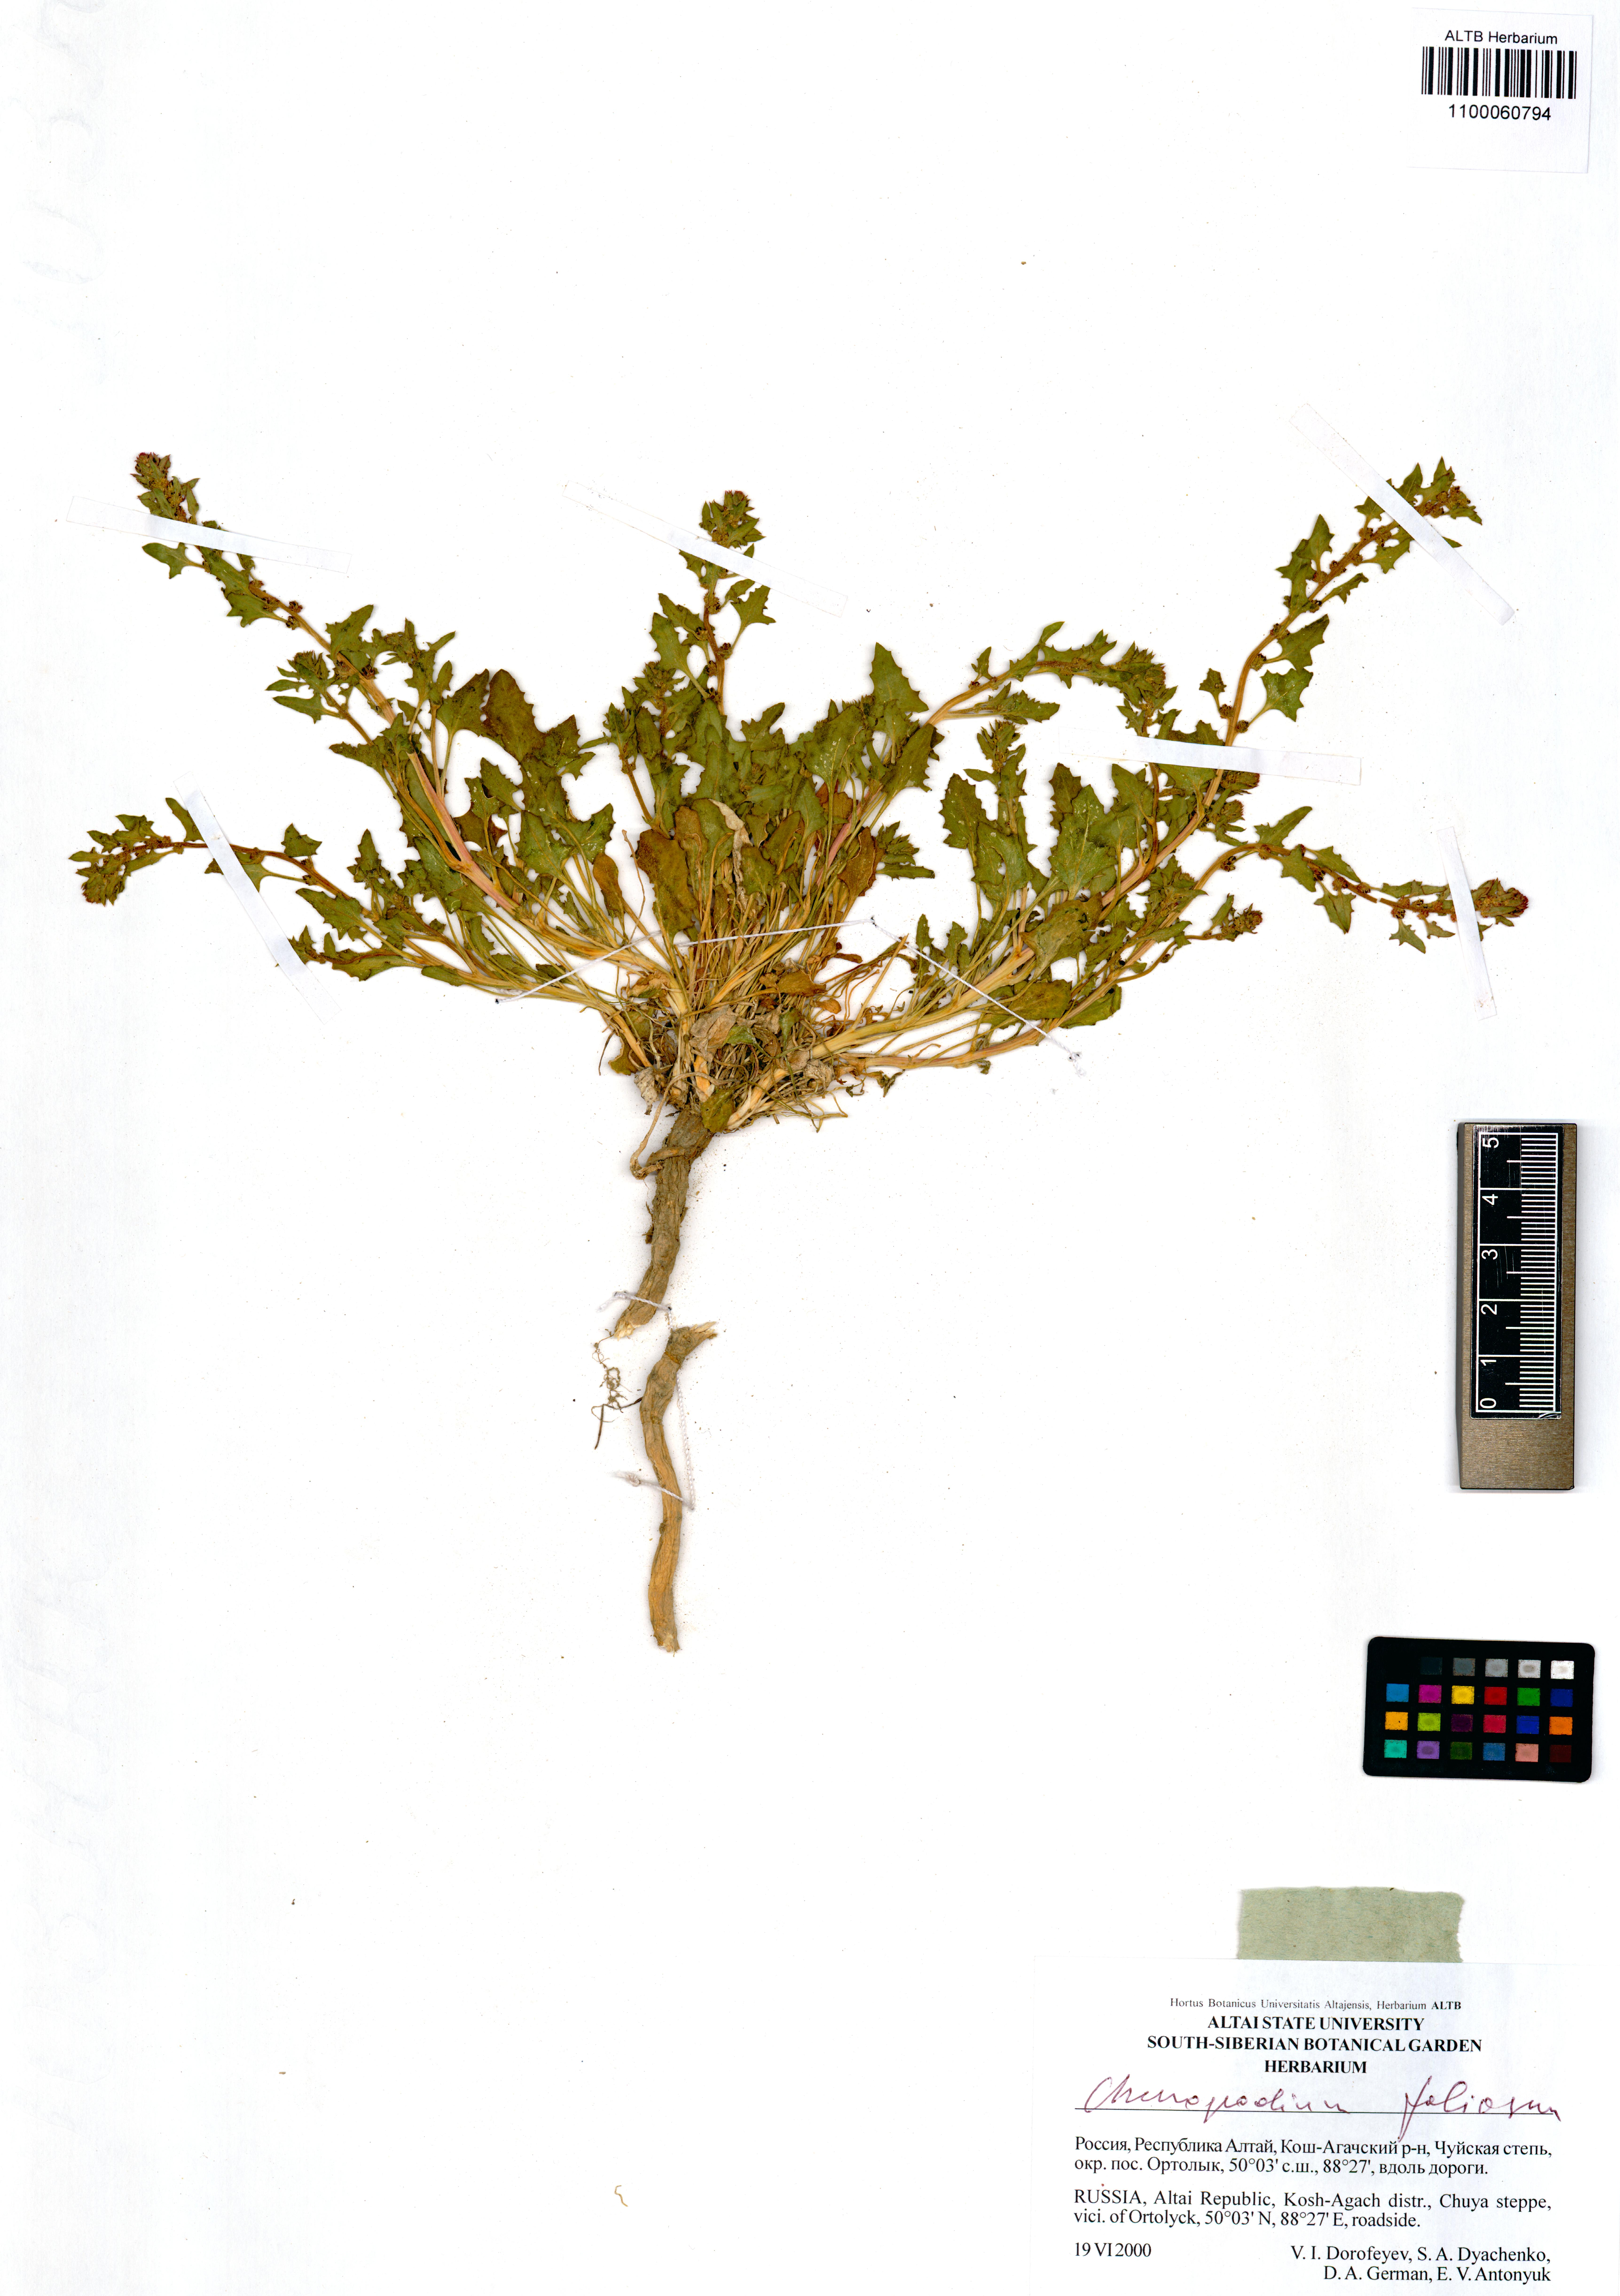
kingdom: Plantae
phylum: Tracheophyta
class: Magnoliopsida
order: Caryophyllales
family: Amaranthaceae
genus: Blitum
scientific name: Blitum virgatum
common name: Strawberry goosefoot
